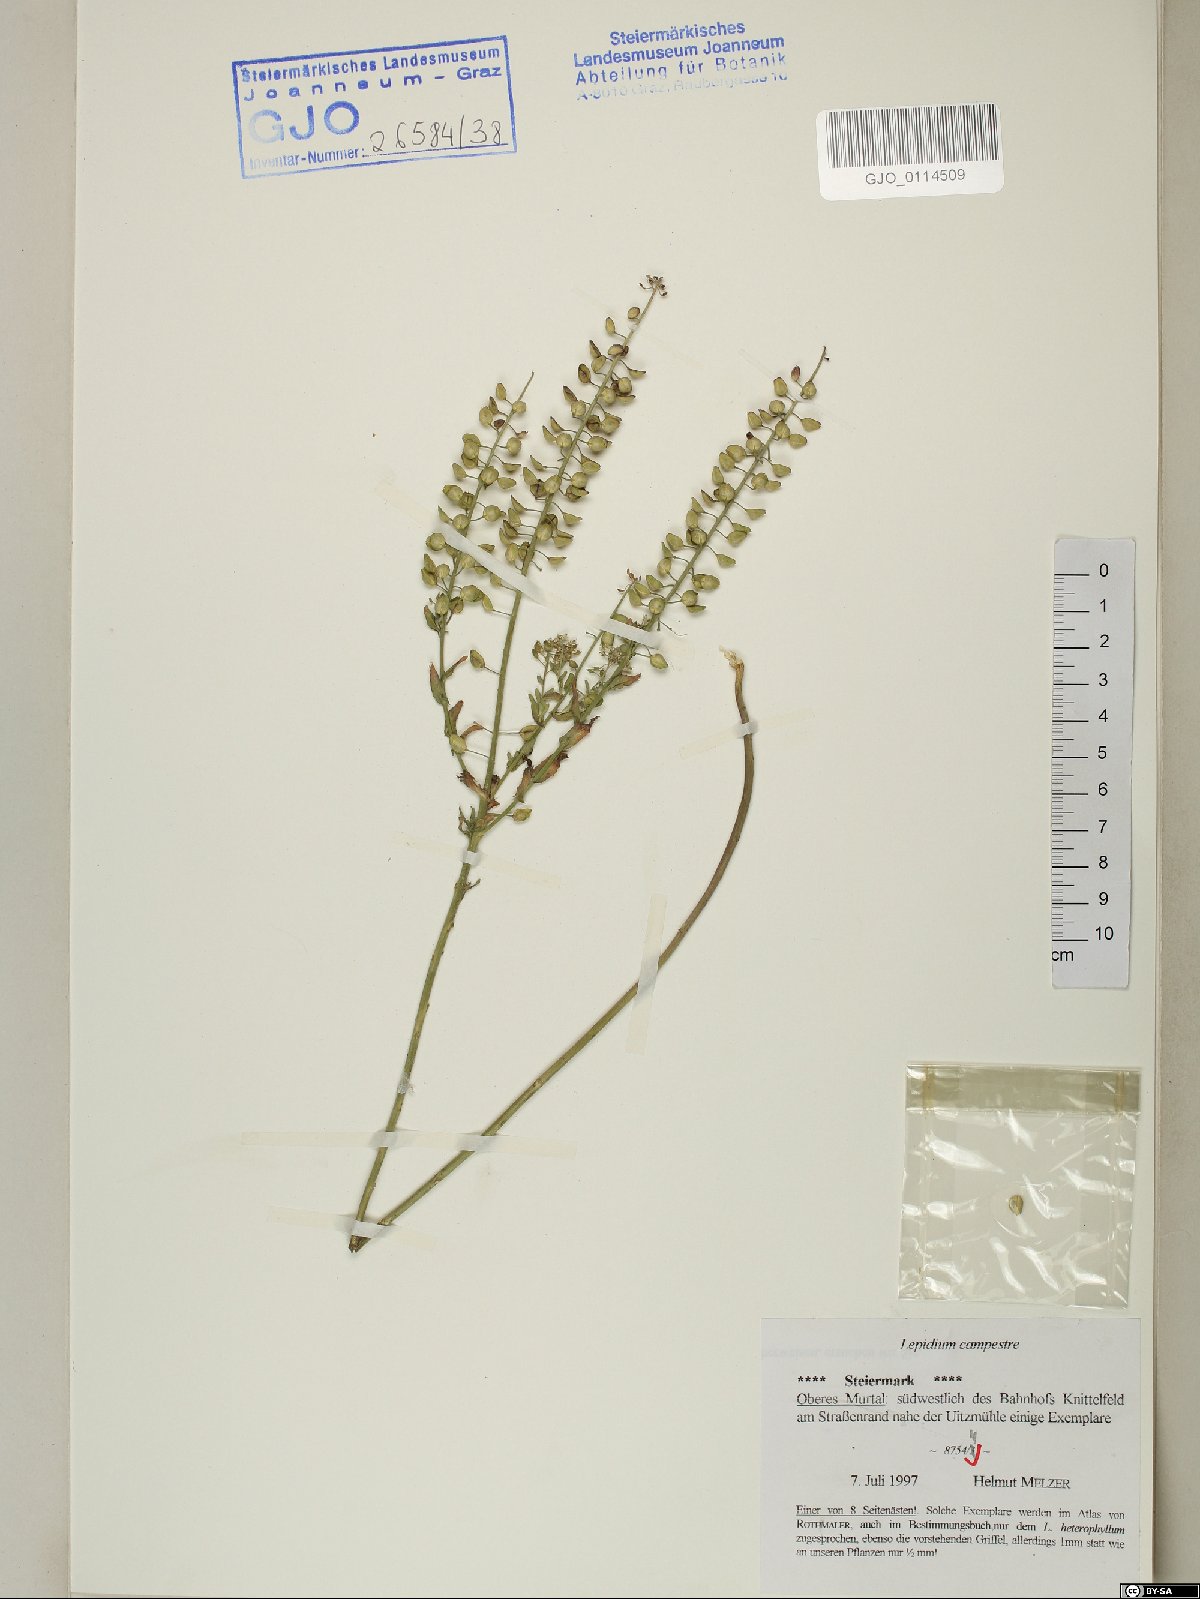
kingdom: Plantae
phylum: Tracheophyta
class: Magnoliopsida
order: Brassicales
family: Brassicaceae
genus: Lepidium
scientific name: Lepidium campestre
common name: Field pepperwort
